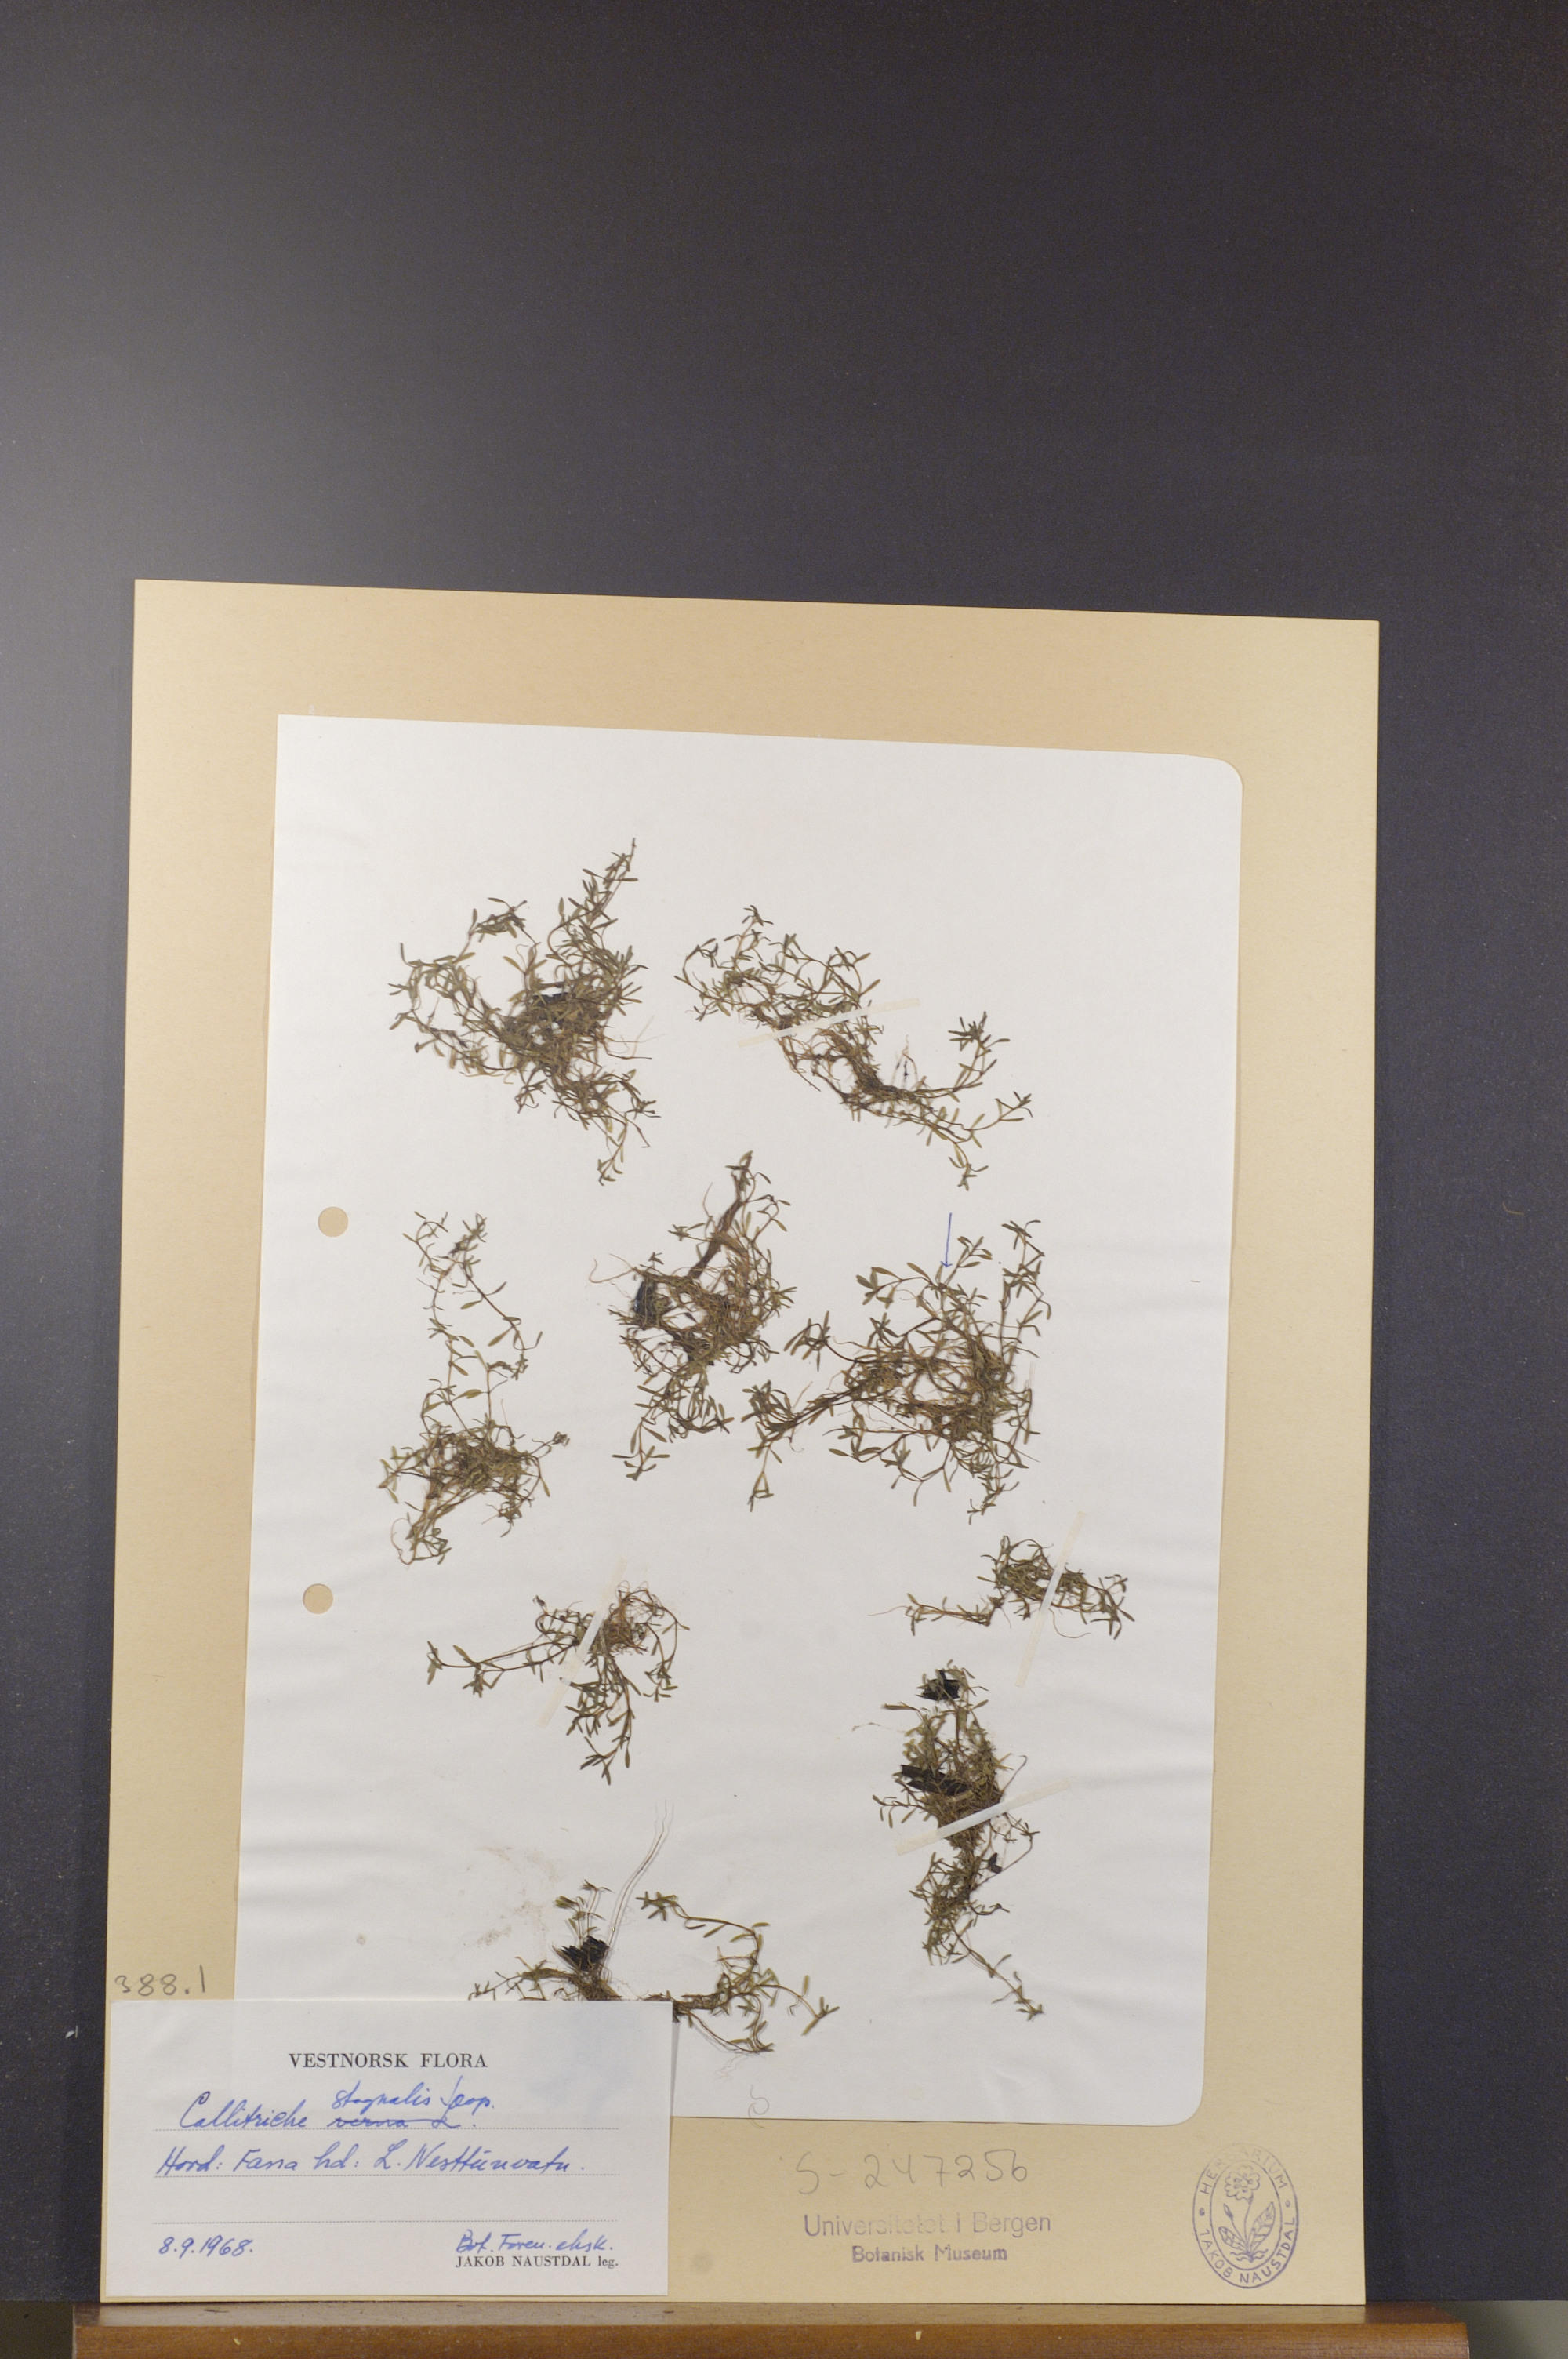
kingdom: Plantae
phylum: Tracheophyta
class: Magnoliopsida
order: Lamiales
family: Plantaginaceae
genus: Callitriche
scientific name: Callitriche stagnalis
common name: Common water-starwort
